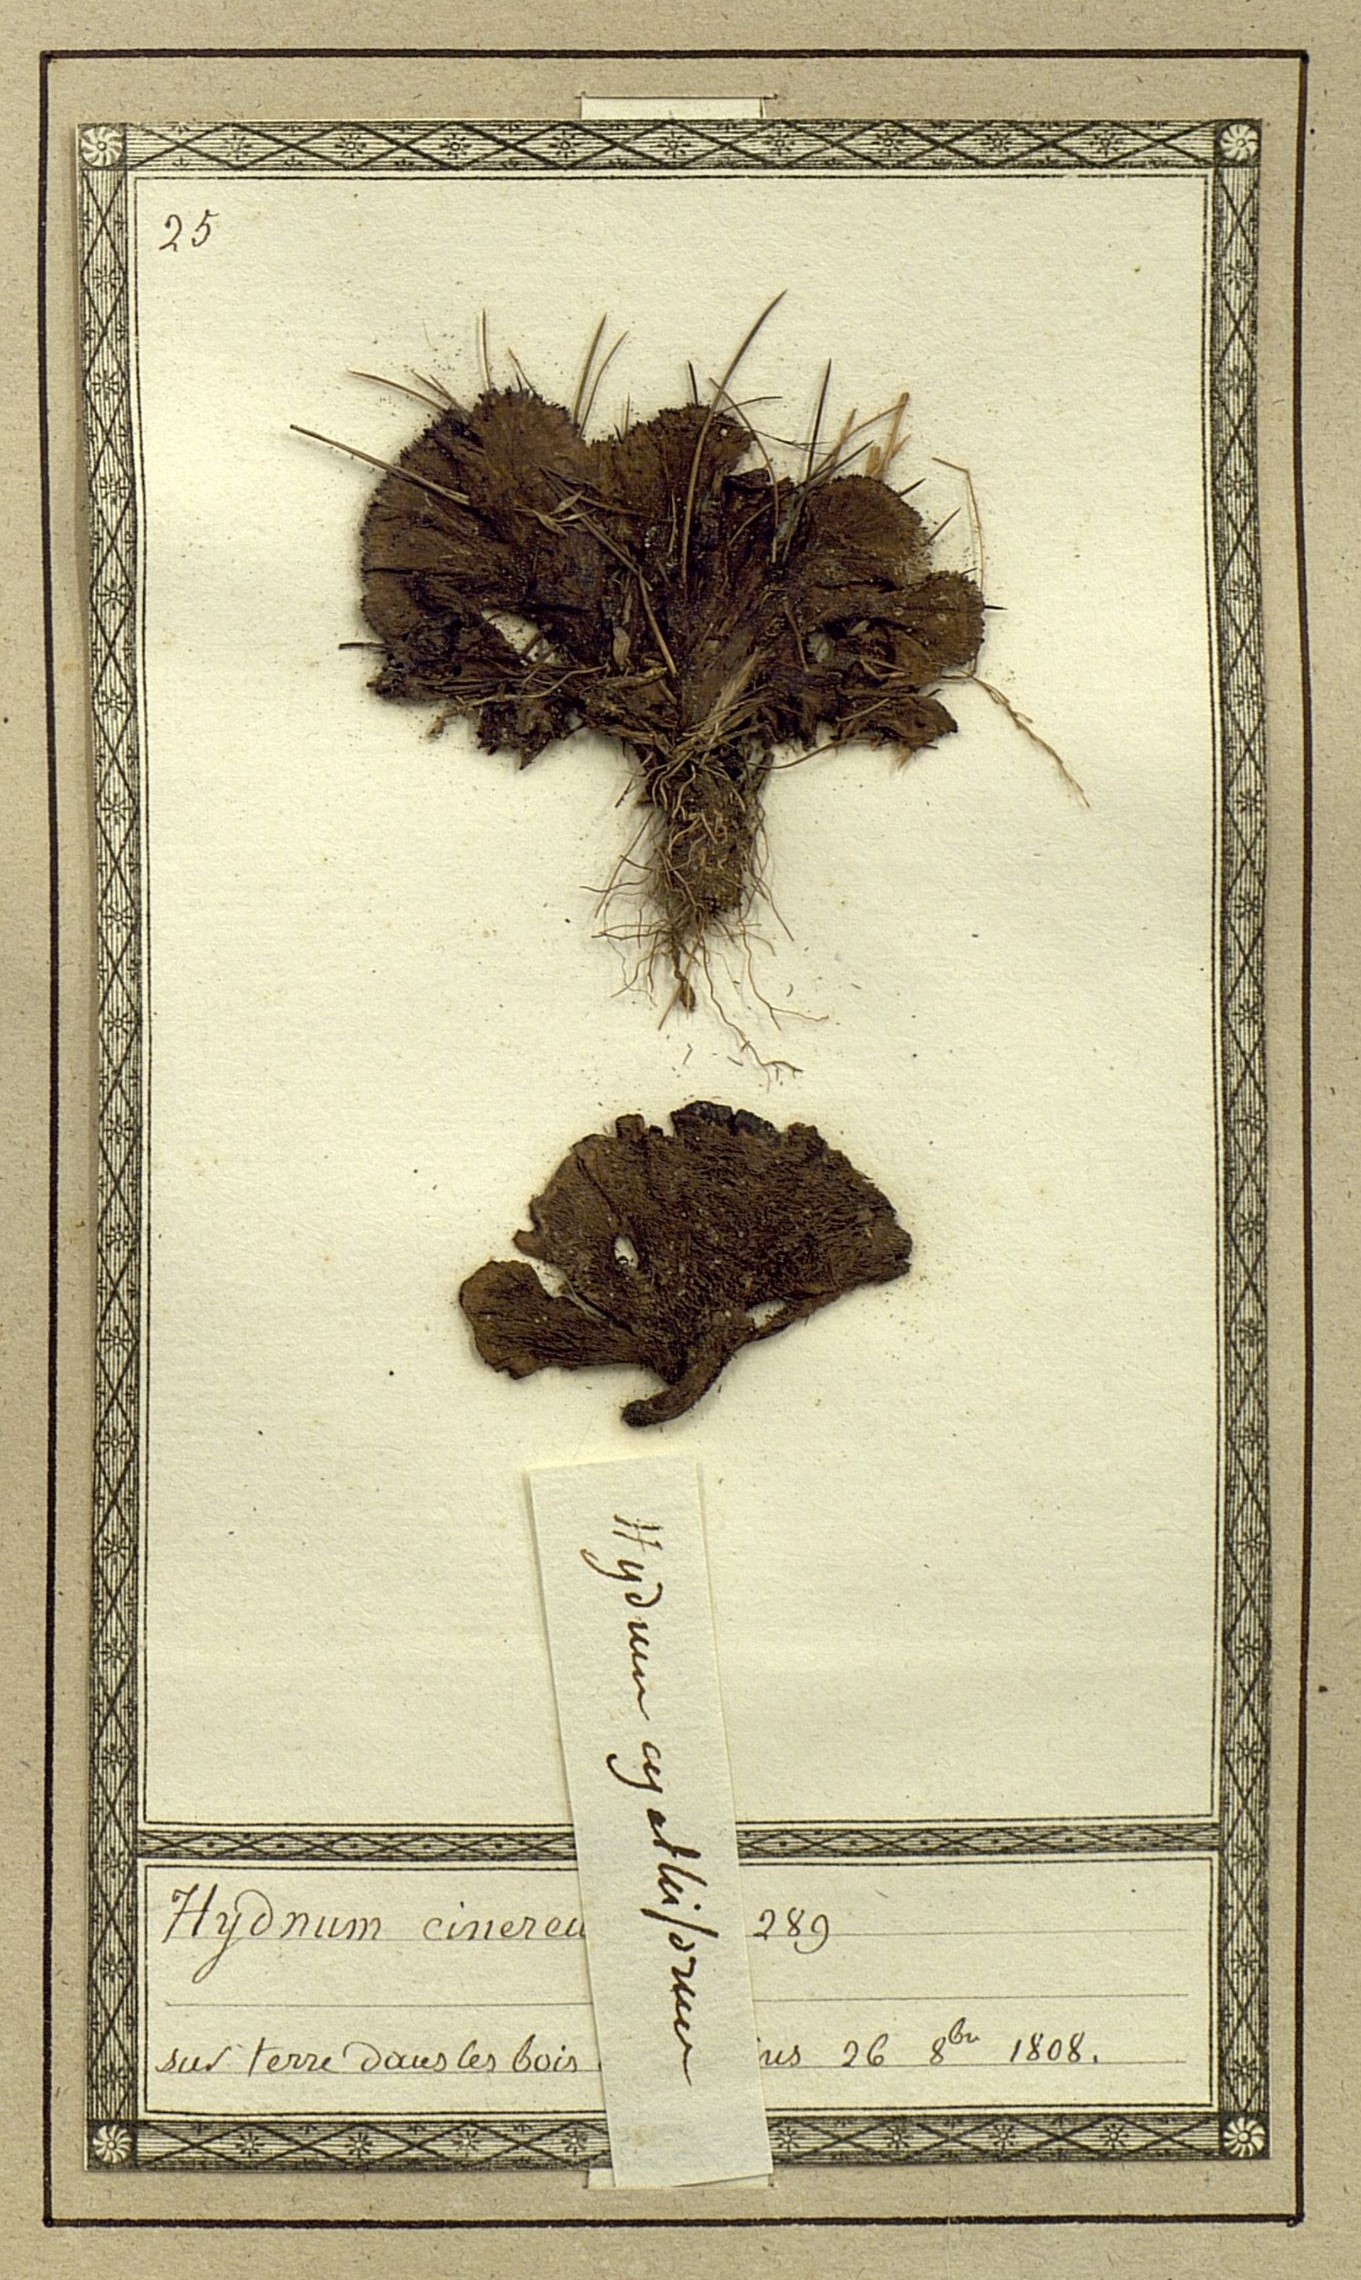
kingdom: Fungi
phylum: Basidiomycota
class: Agaricomycetes
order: Thelephorales
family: Thelephoraceae
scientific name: Thelephoraceae
